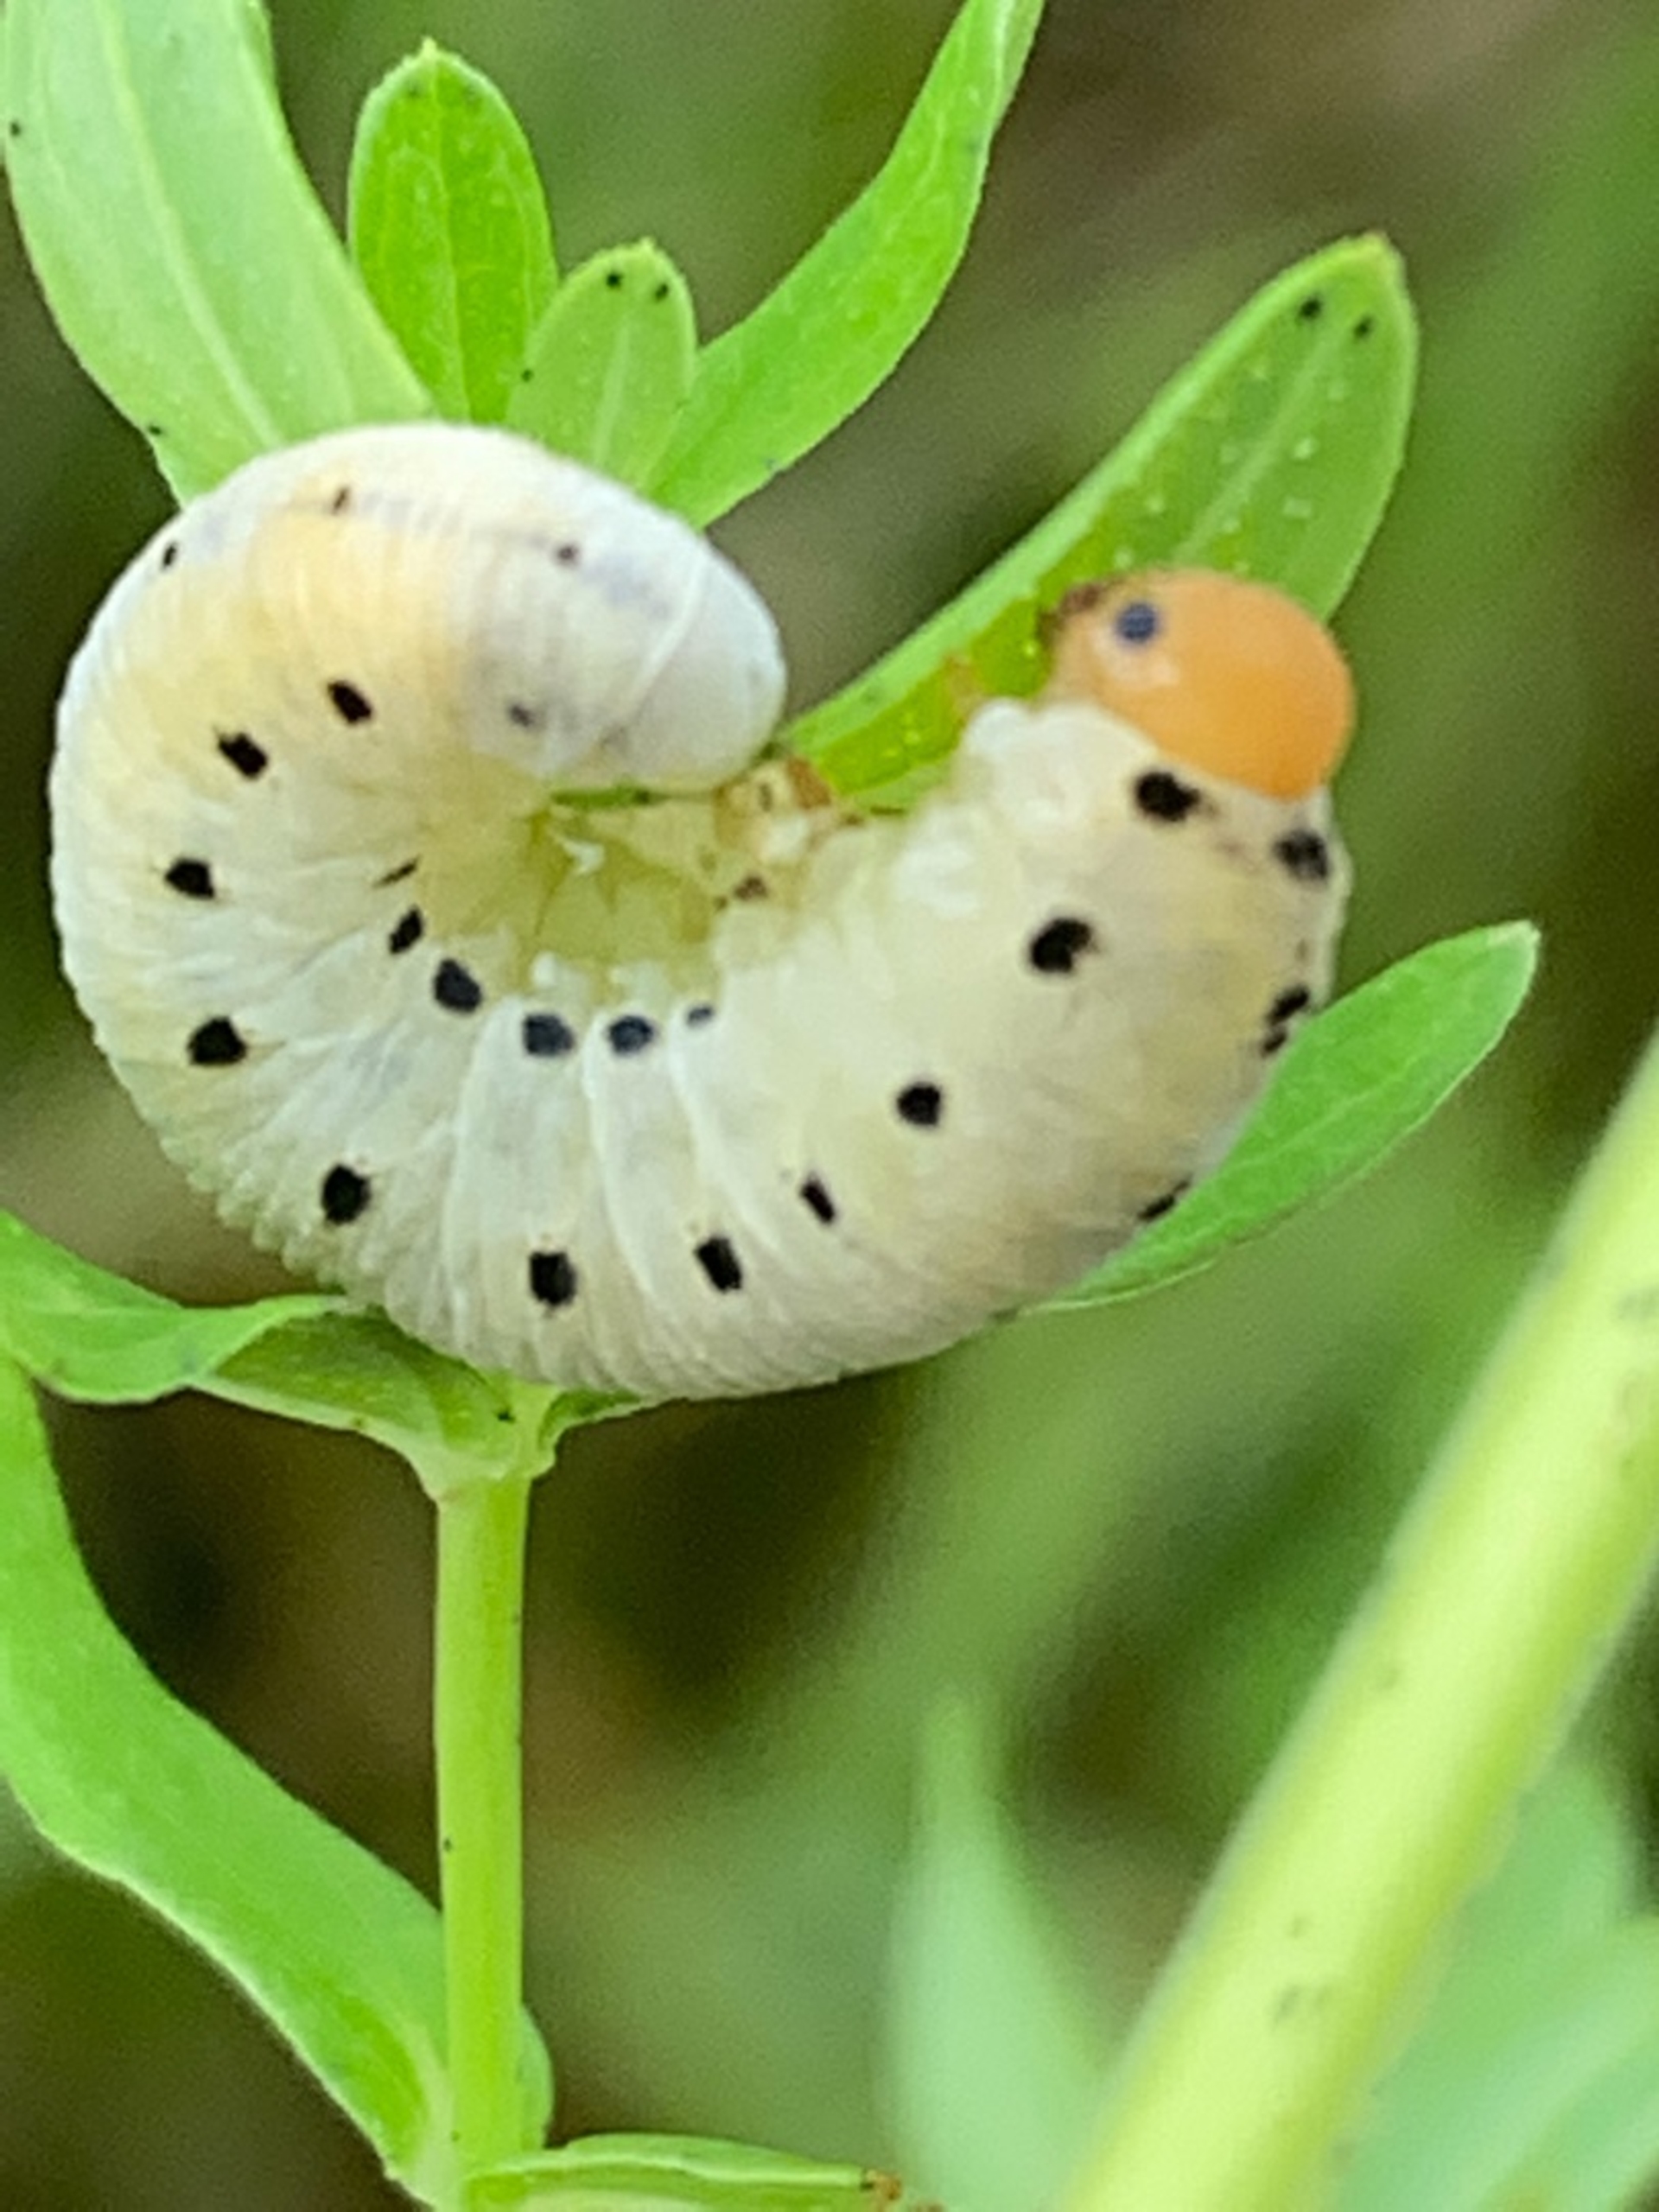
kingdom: Animalia
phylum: Arthropoda
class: Insecta
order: Hymenoptera
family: Tenthredinidae
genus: Tenthredo
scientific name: Tenthredo zona
